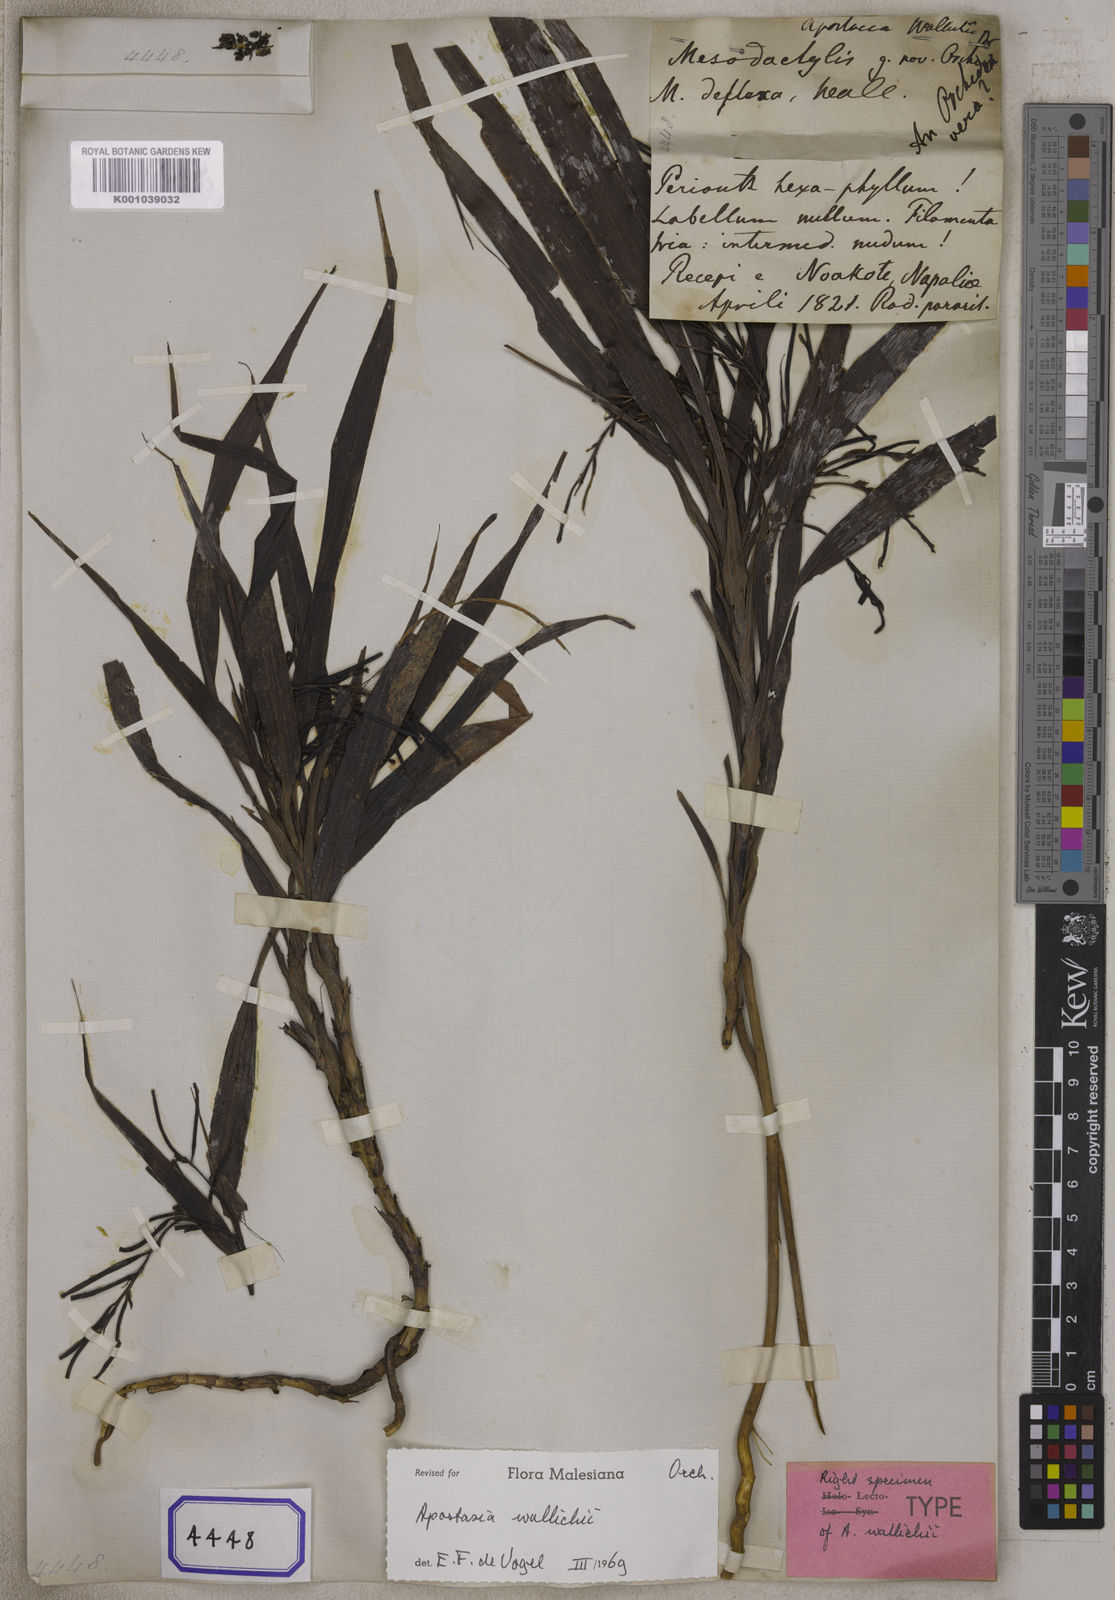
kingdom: Plantae
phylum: Tracheophyta
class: Liliopsida
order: Asparagales
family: Orchidaceae
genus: Apostasia
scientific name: Apostasia wallichii
